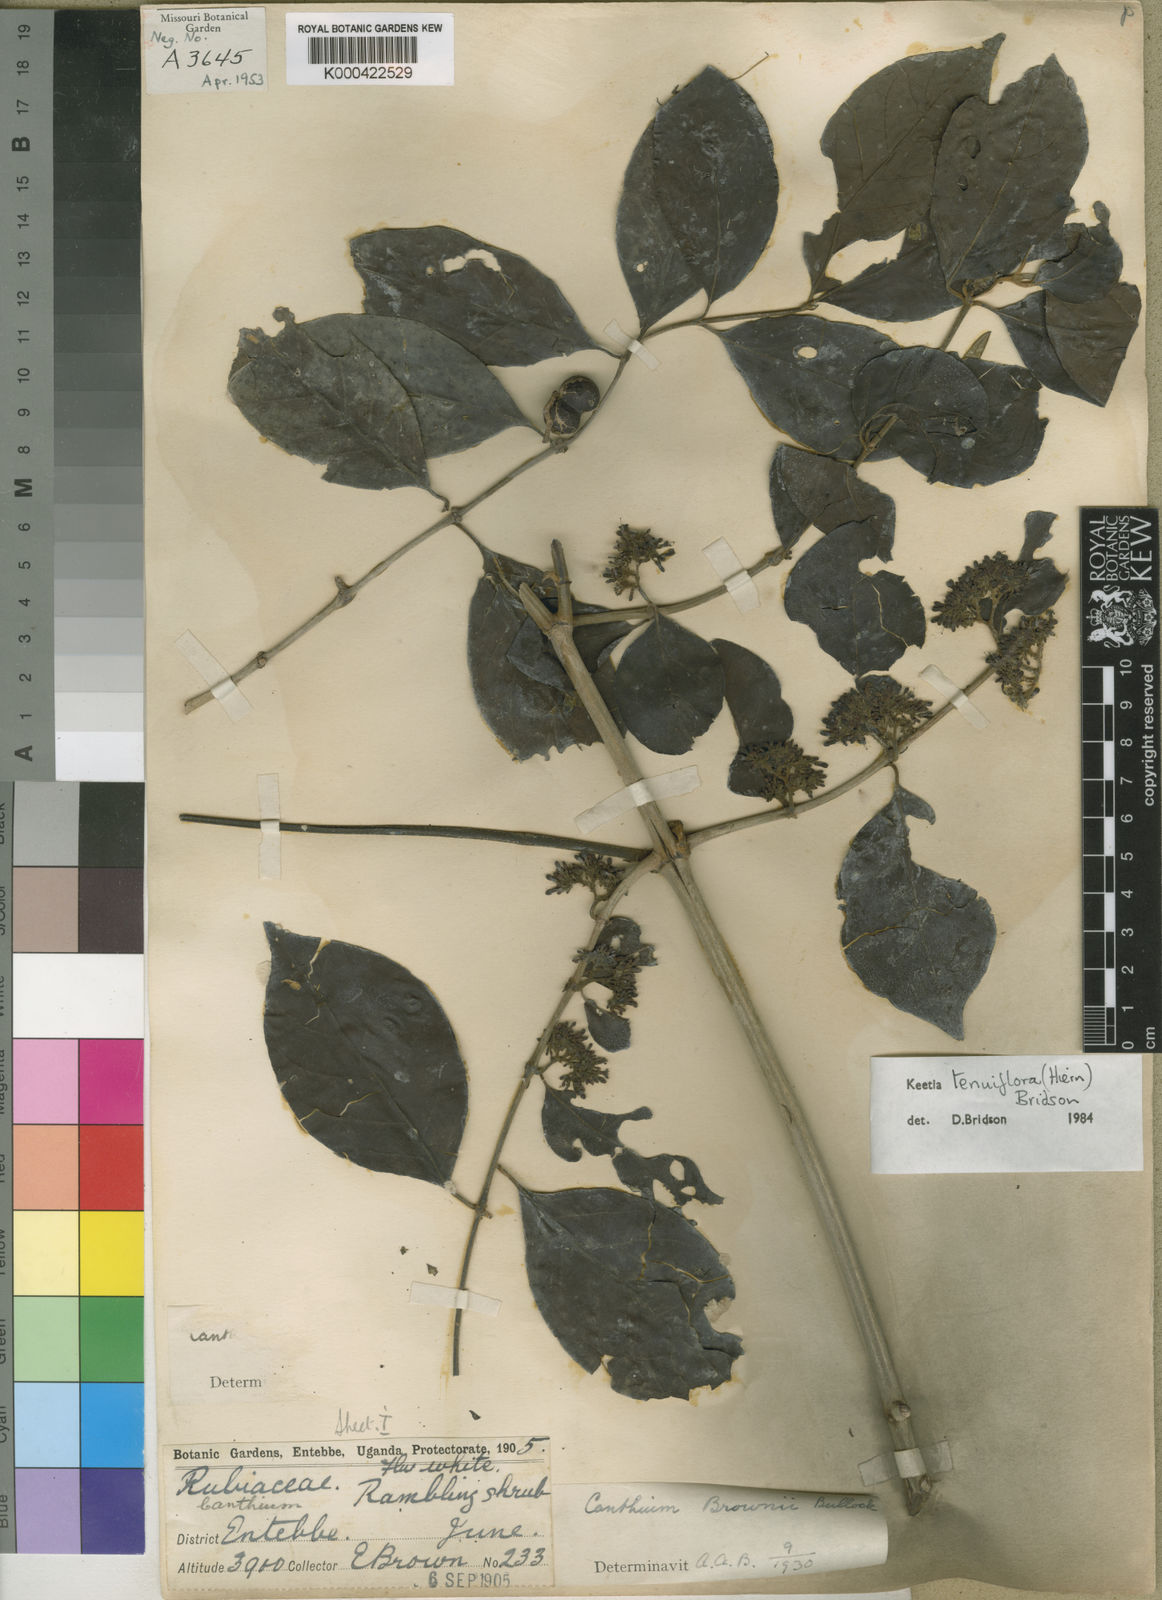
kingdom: Plantae
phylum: Tracheophyta
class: Magnoliopsida
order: Gentianales
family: Rubiaceae
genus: Keetia
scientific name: Keetia tenuiflora
